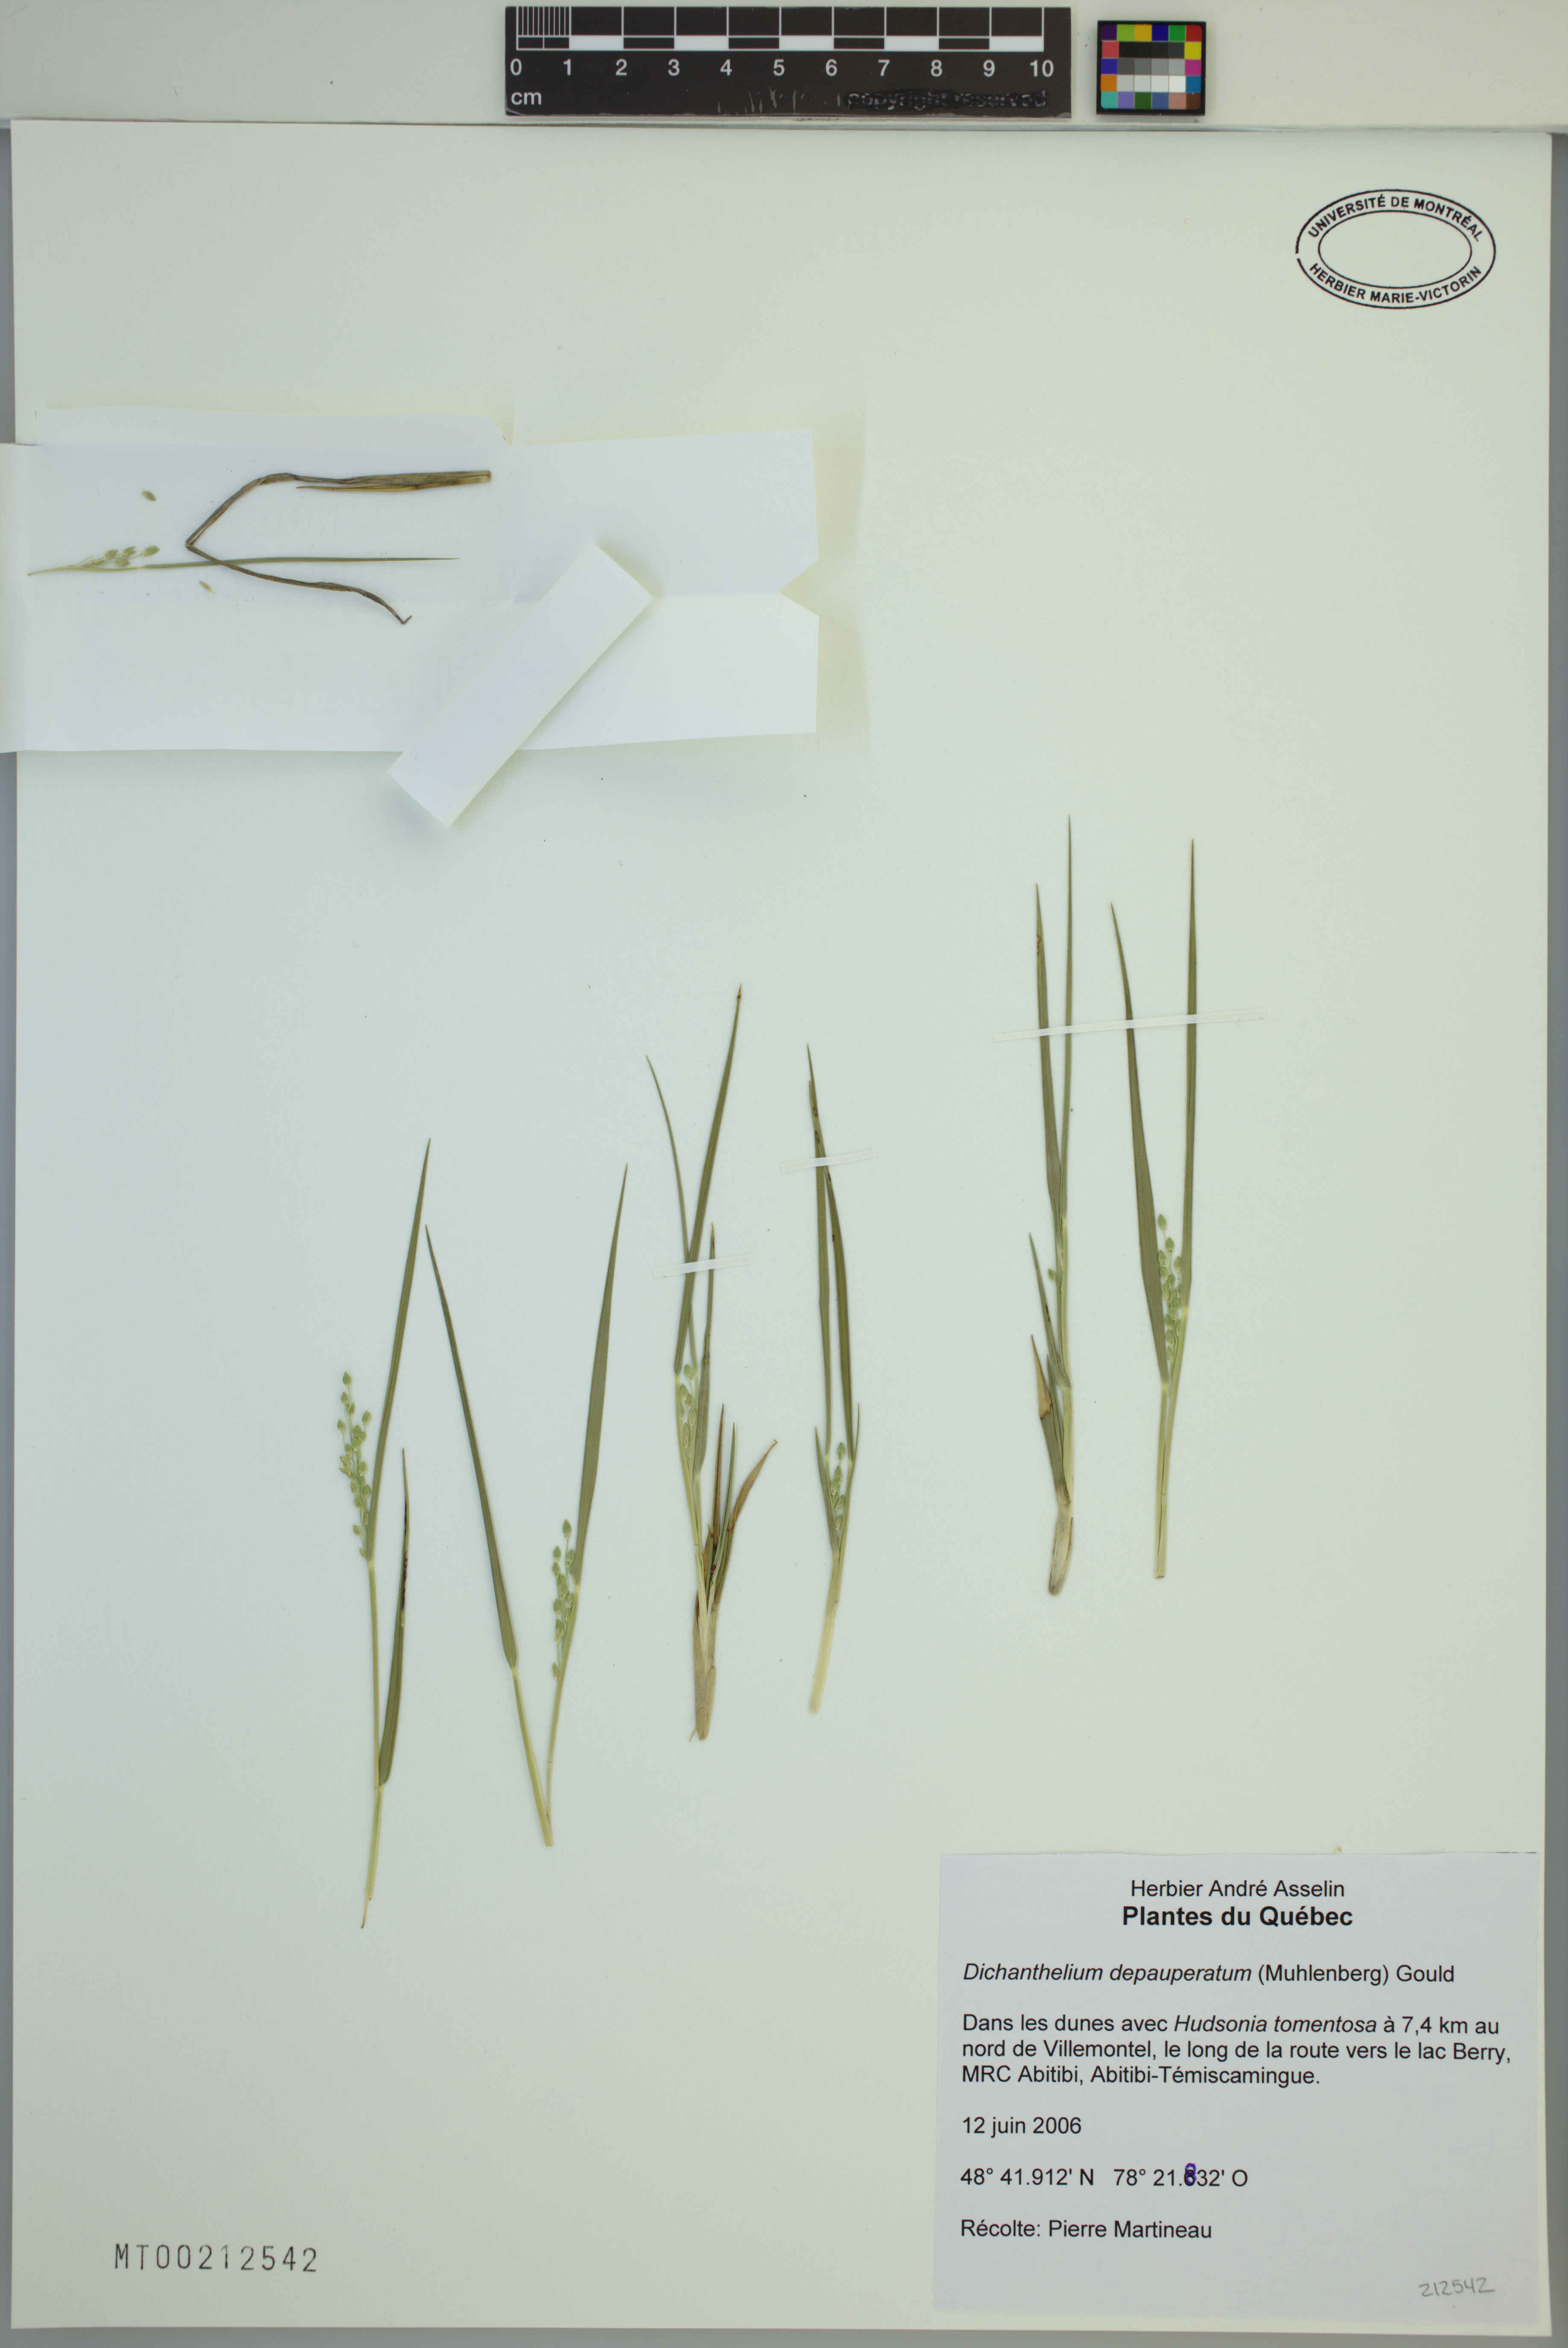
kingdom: Plantae
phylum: Tracheophyta
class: Liliopsida
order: Poales
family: Poaceae
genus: Dichanthelium
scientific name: Dichanthelium depauperatum
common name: Depauperate panicgrass
